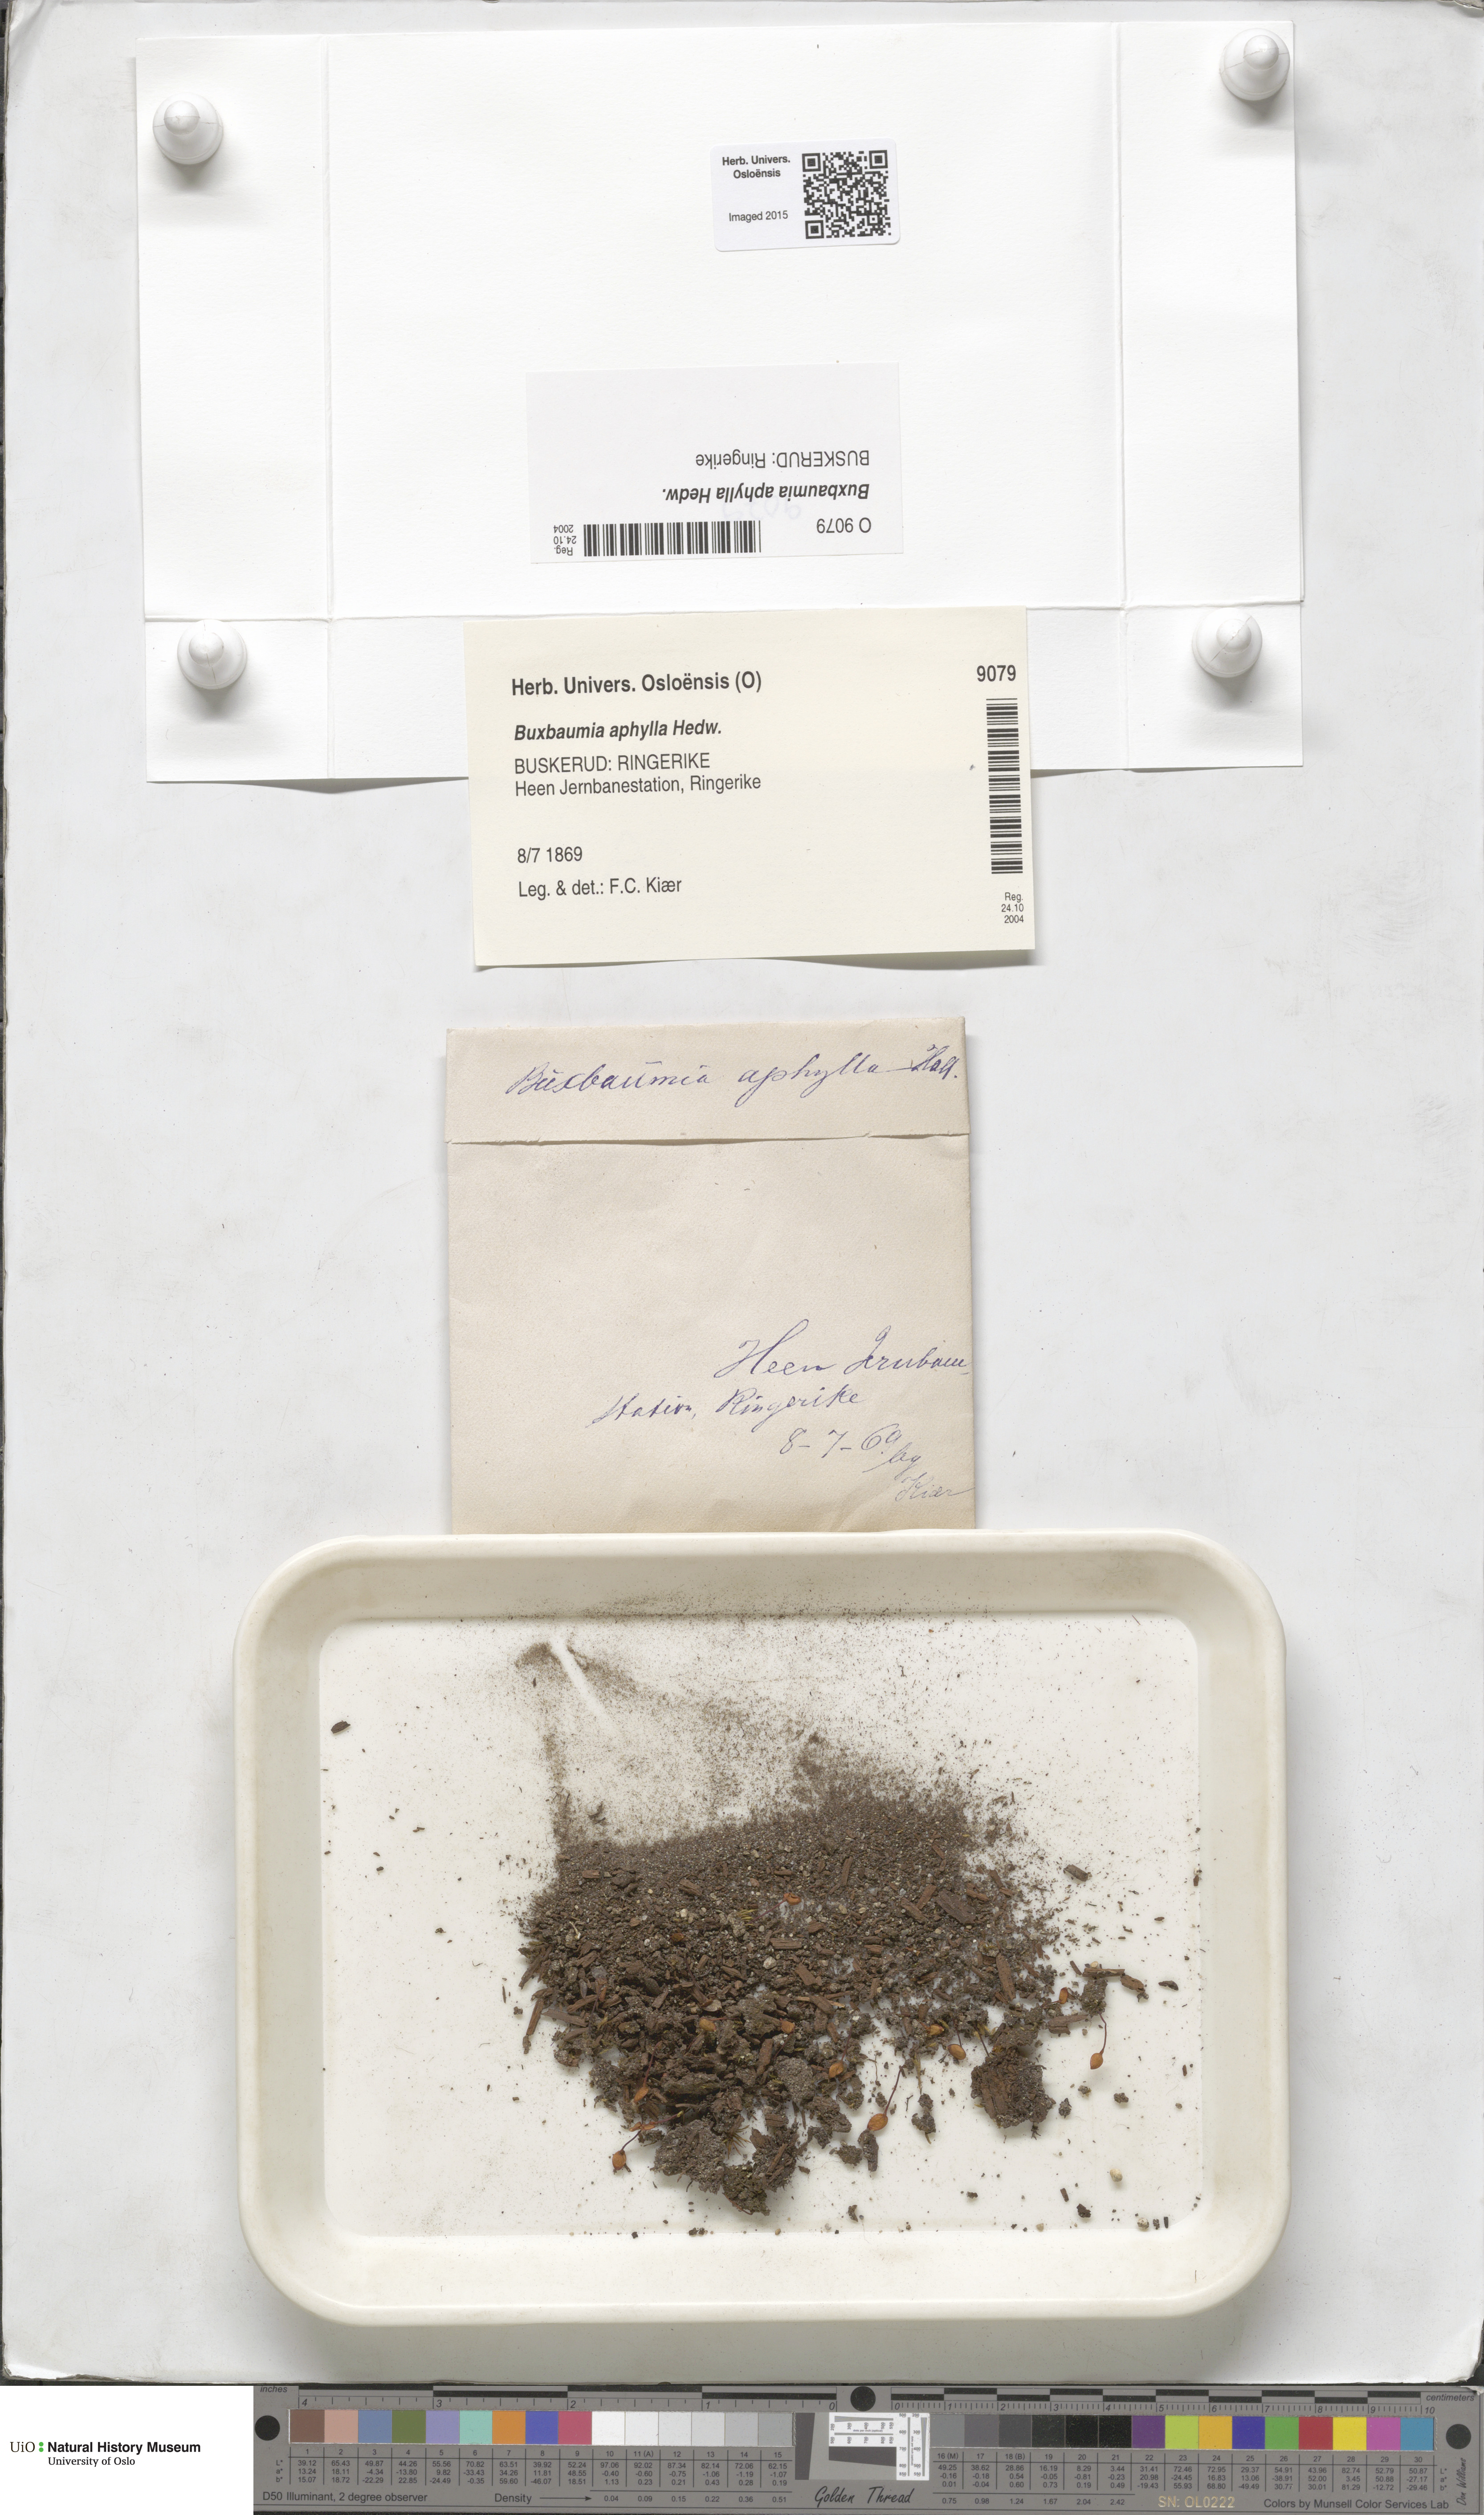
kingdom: Plantae
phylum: Bryophyta
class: Bryopsida
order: Buxbaumiales
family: Buxbaumiaceae
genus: Buxbaumia
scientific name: Buxbaumia aphylla
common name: Brown shield-moss
